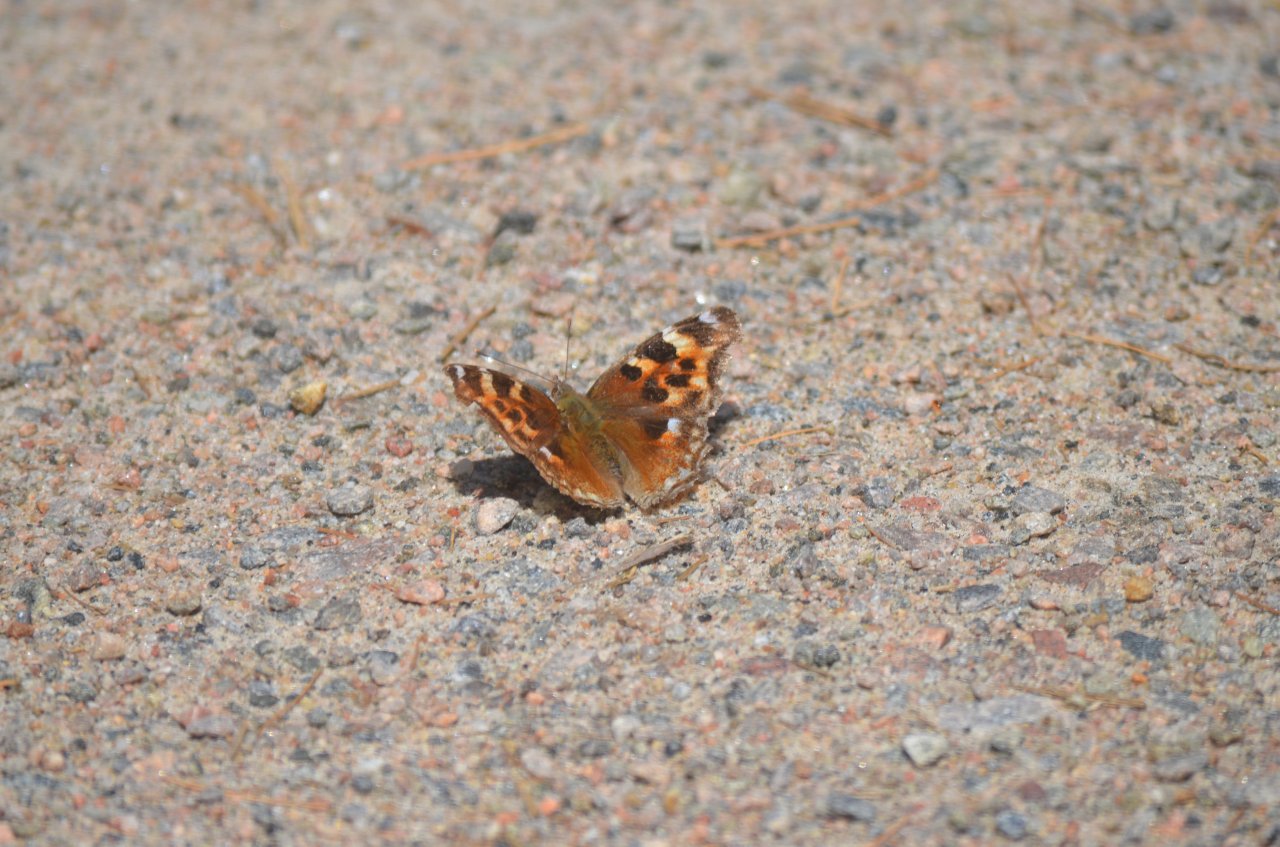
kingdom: Animalia
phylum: Arthropoda
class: Insecta
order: Lepidoptera
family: Nymphalidae
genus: Polygonia
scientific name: Polygonia vaualbum
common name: Compton Tortoiseshell
